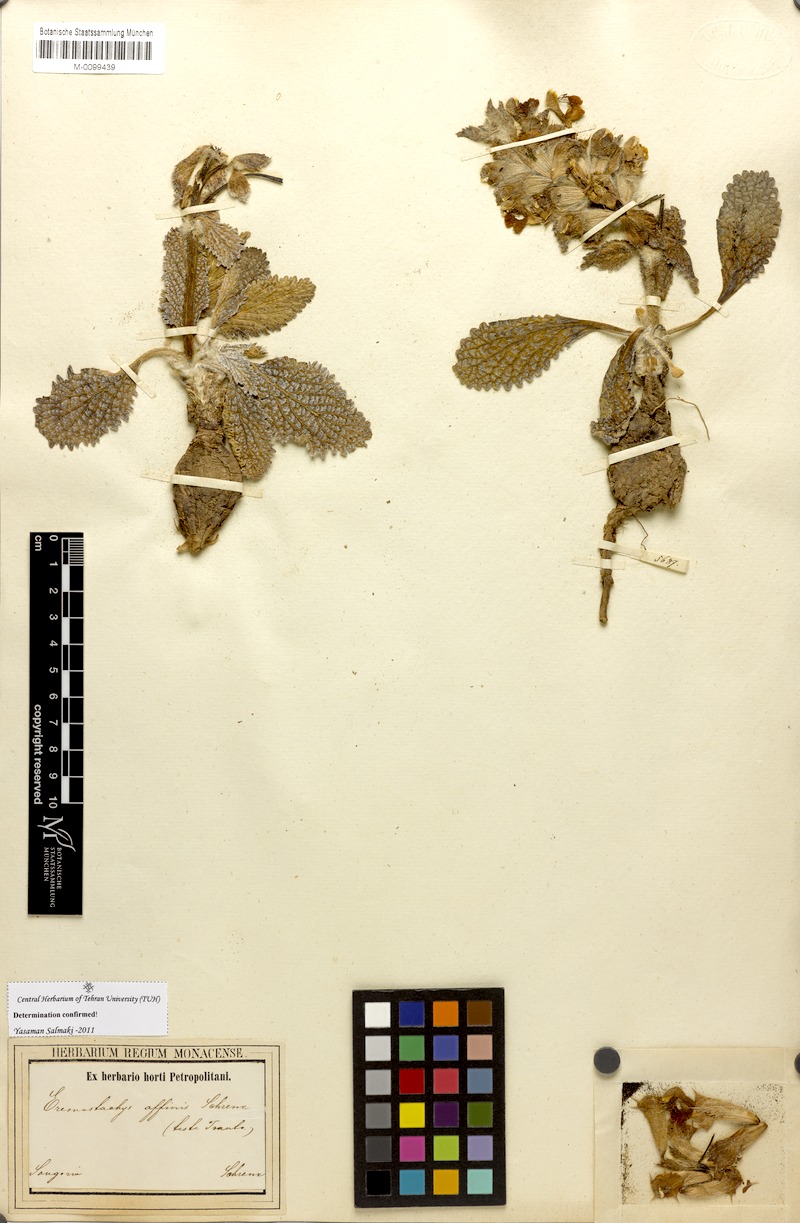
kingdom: Plantae
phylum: Tracheophyta
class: Magnoliopsida
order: Lamiales
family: Lamiaceae
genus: Phlomoides
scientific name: Phlomoides affinis
